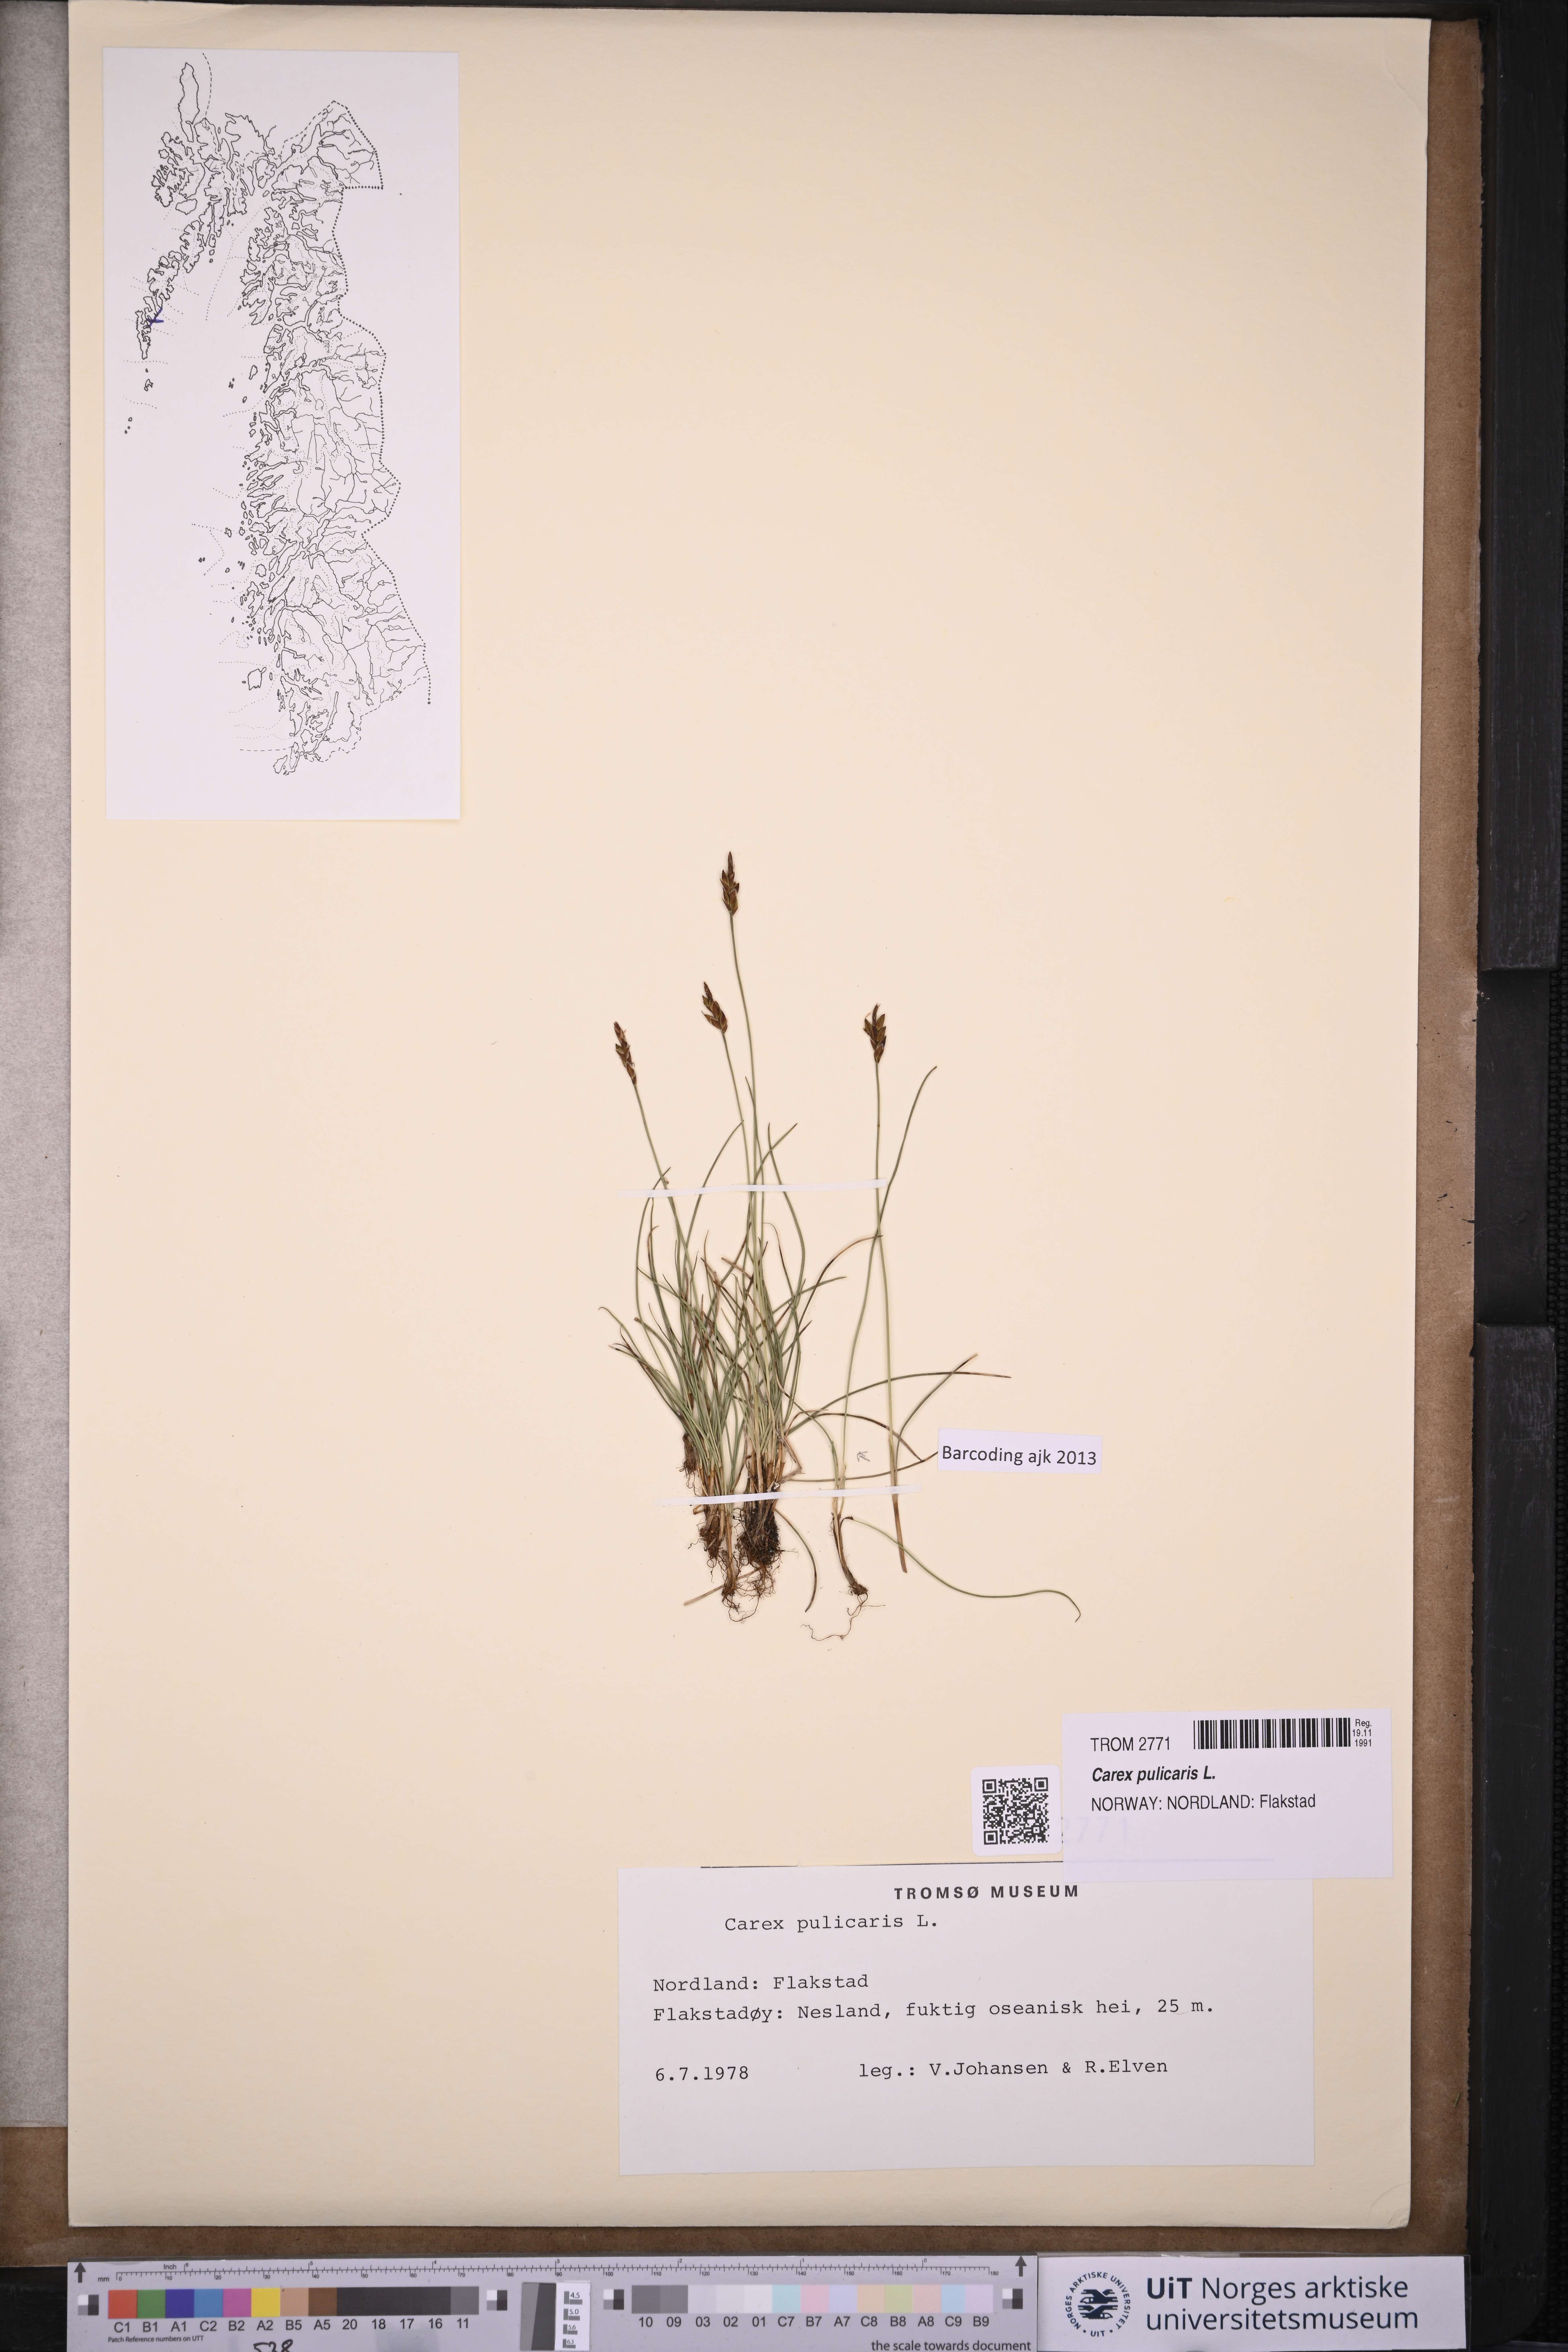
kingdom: Plantae
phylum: Tracheophyta
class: Liliopsida
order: Poales
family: Cyperaceae
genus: Carex
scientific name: Carex pulicaris
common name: Flea sedge
